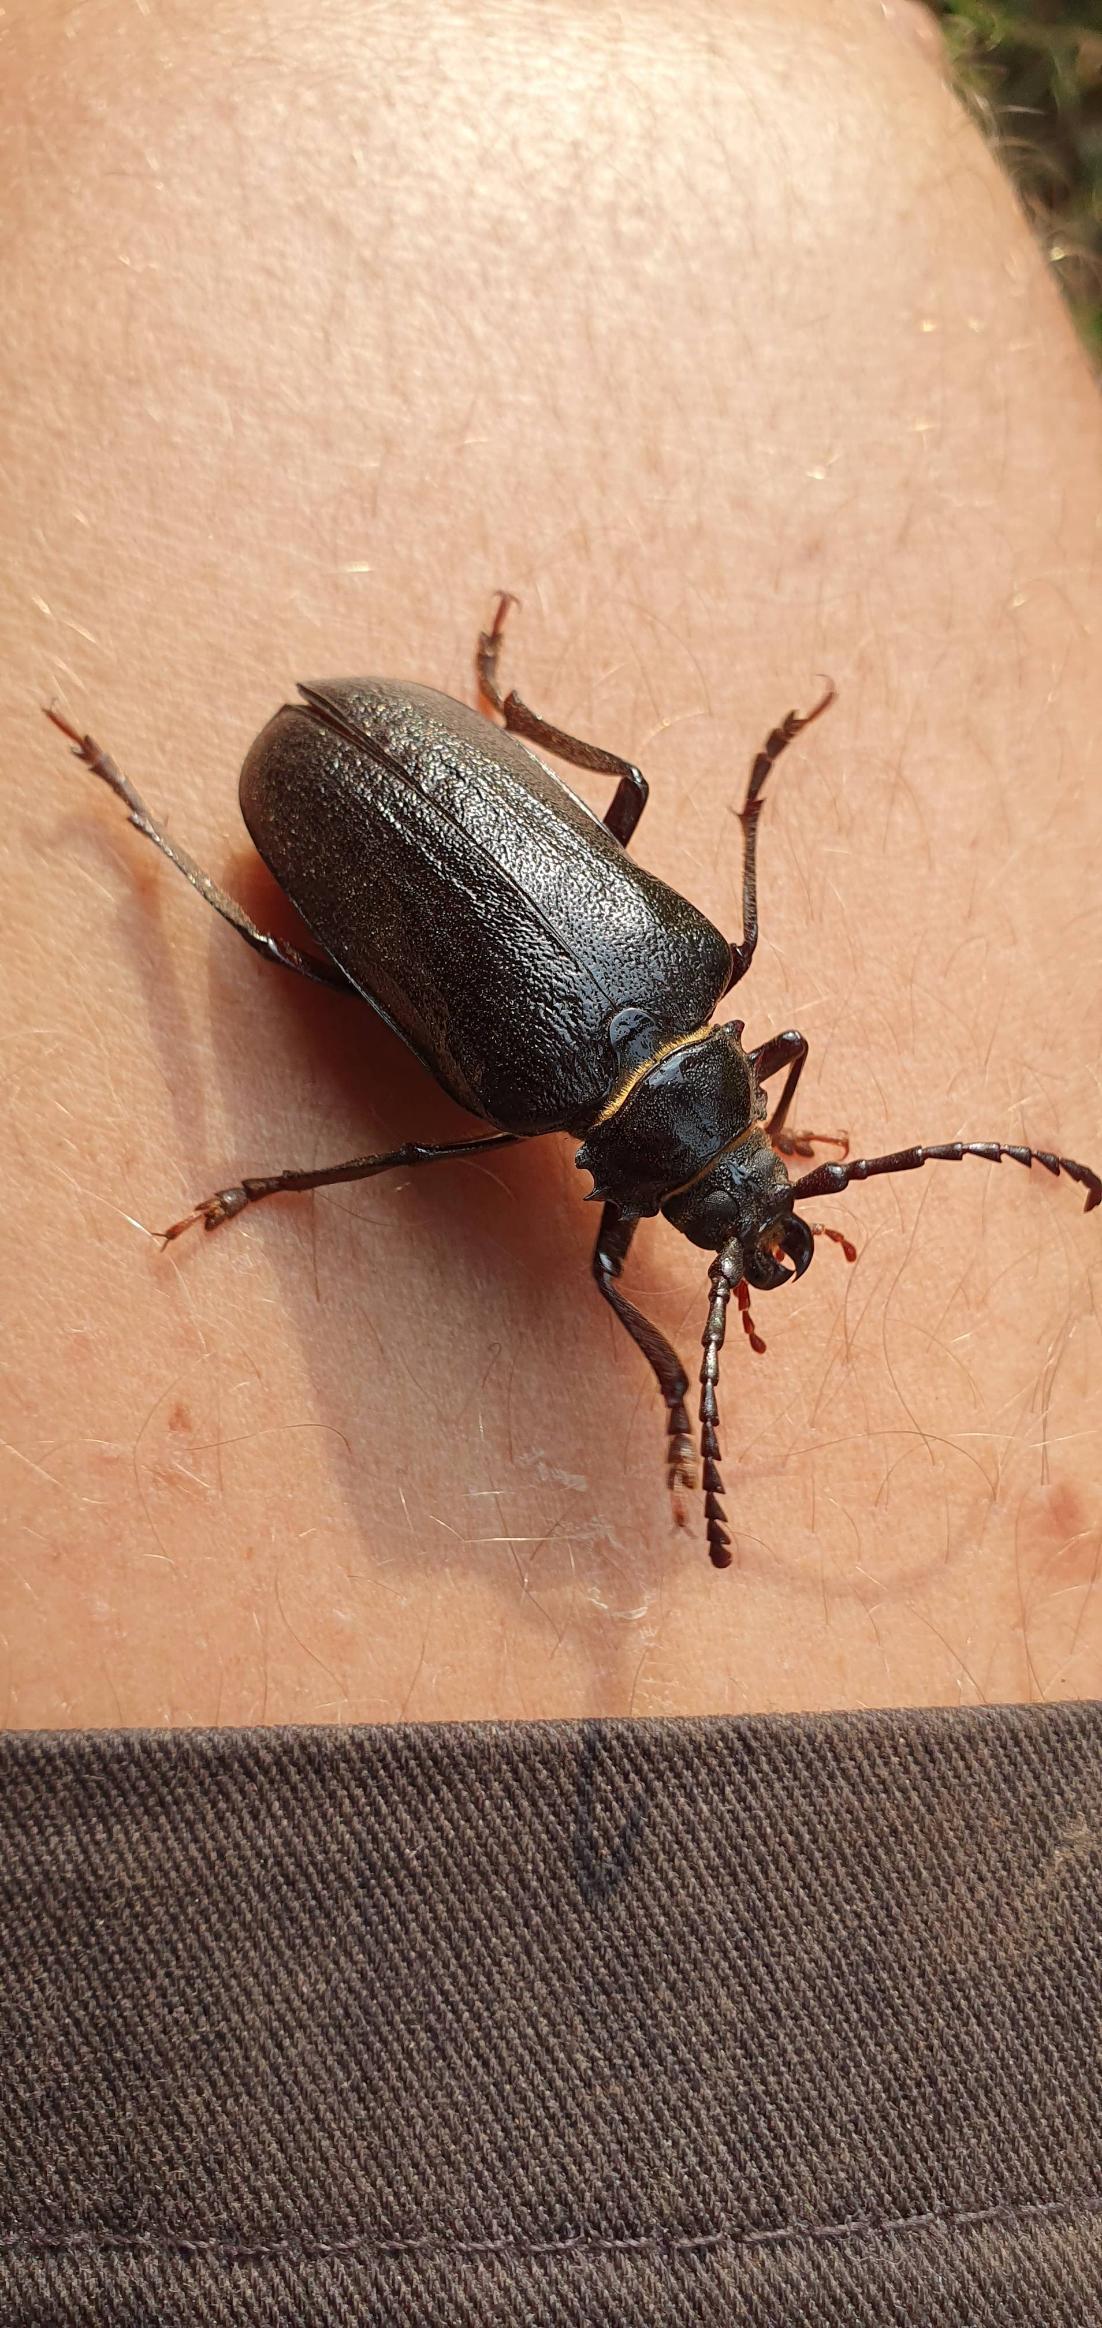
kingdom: Animalia
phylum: Arthropoda
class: Insecta
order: Coleoptera
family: Cerambycidae
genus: Prionus
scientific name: Prionus coriarius
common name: Garver
